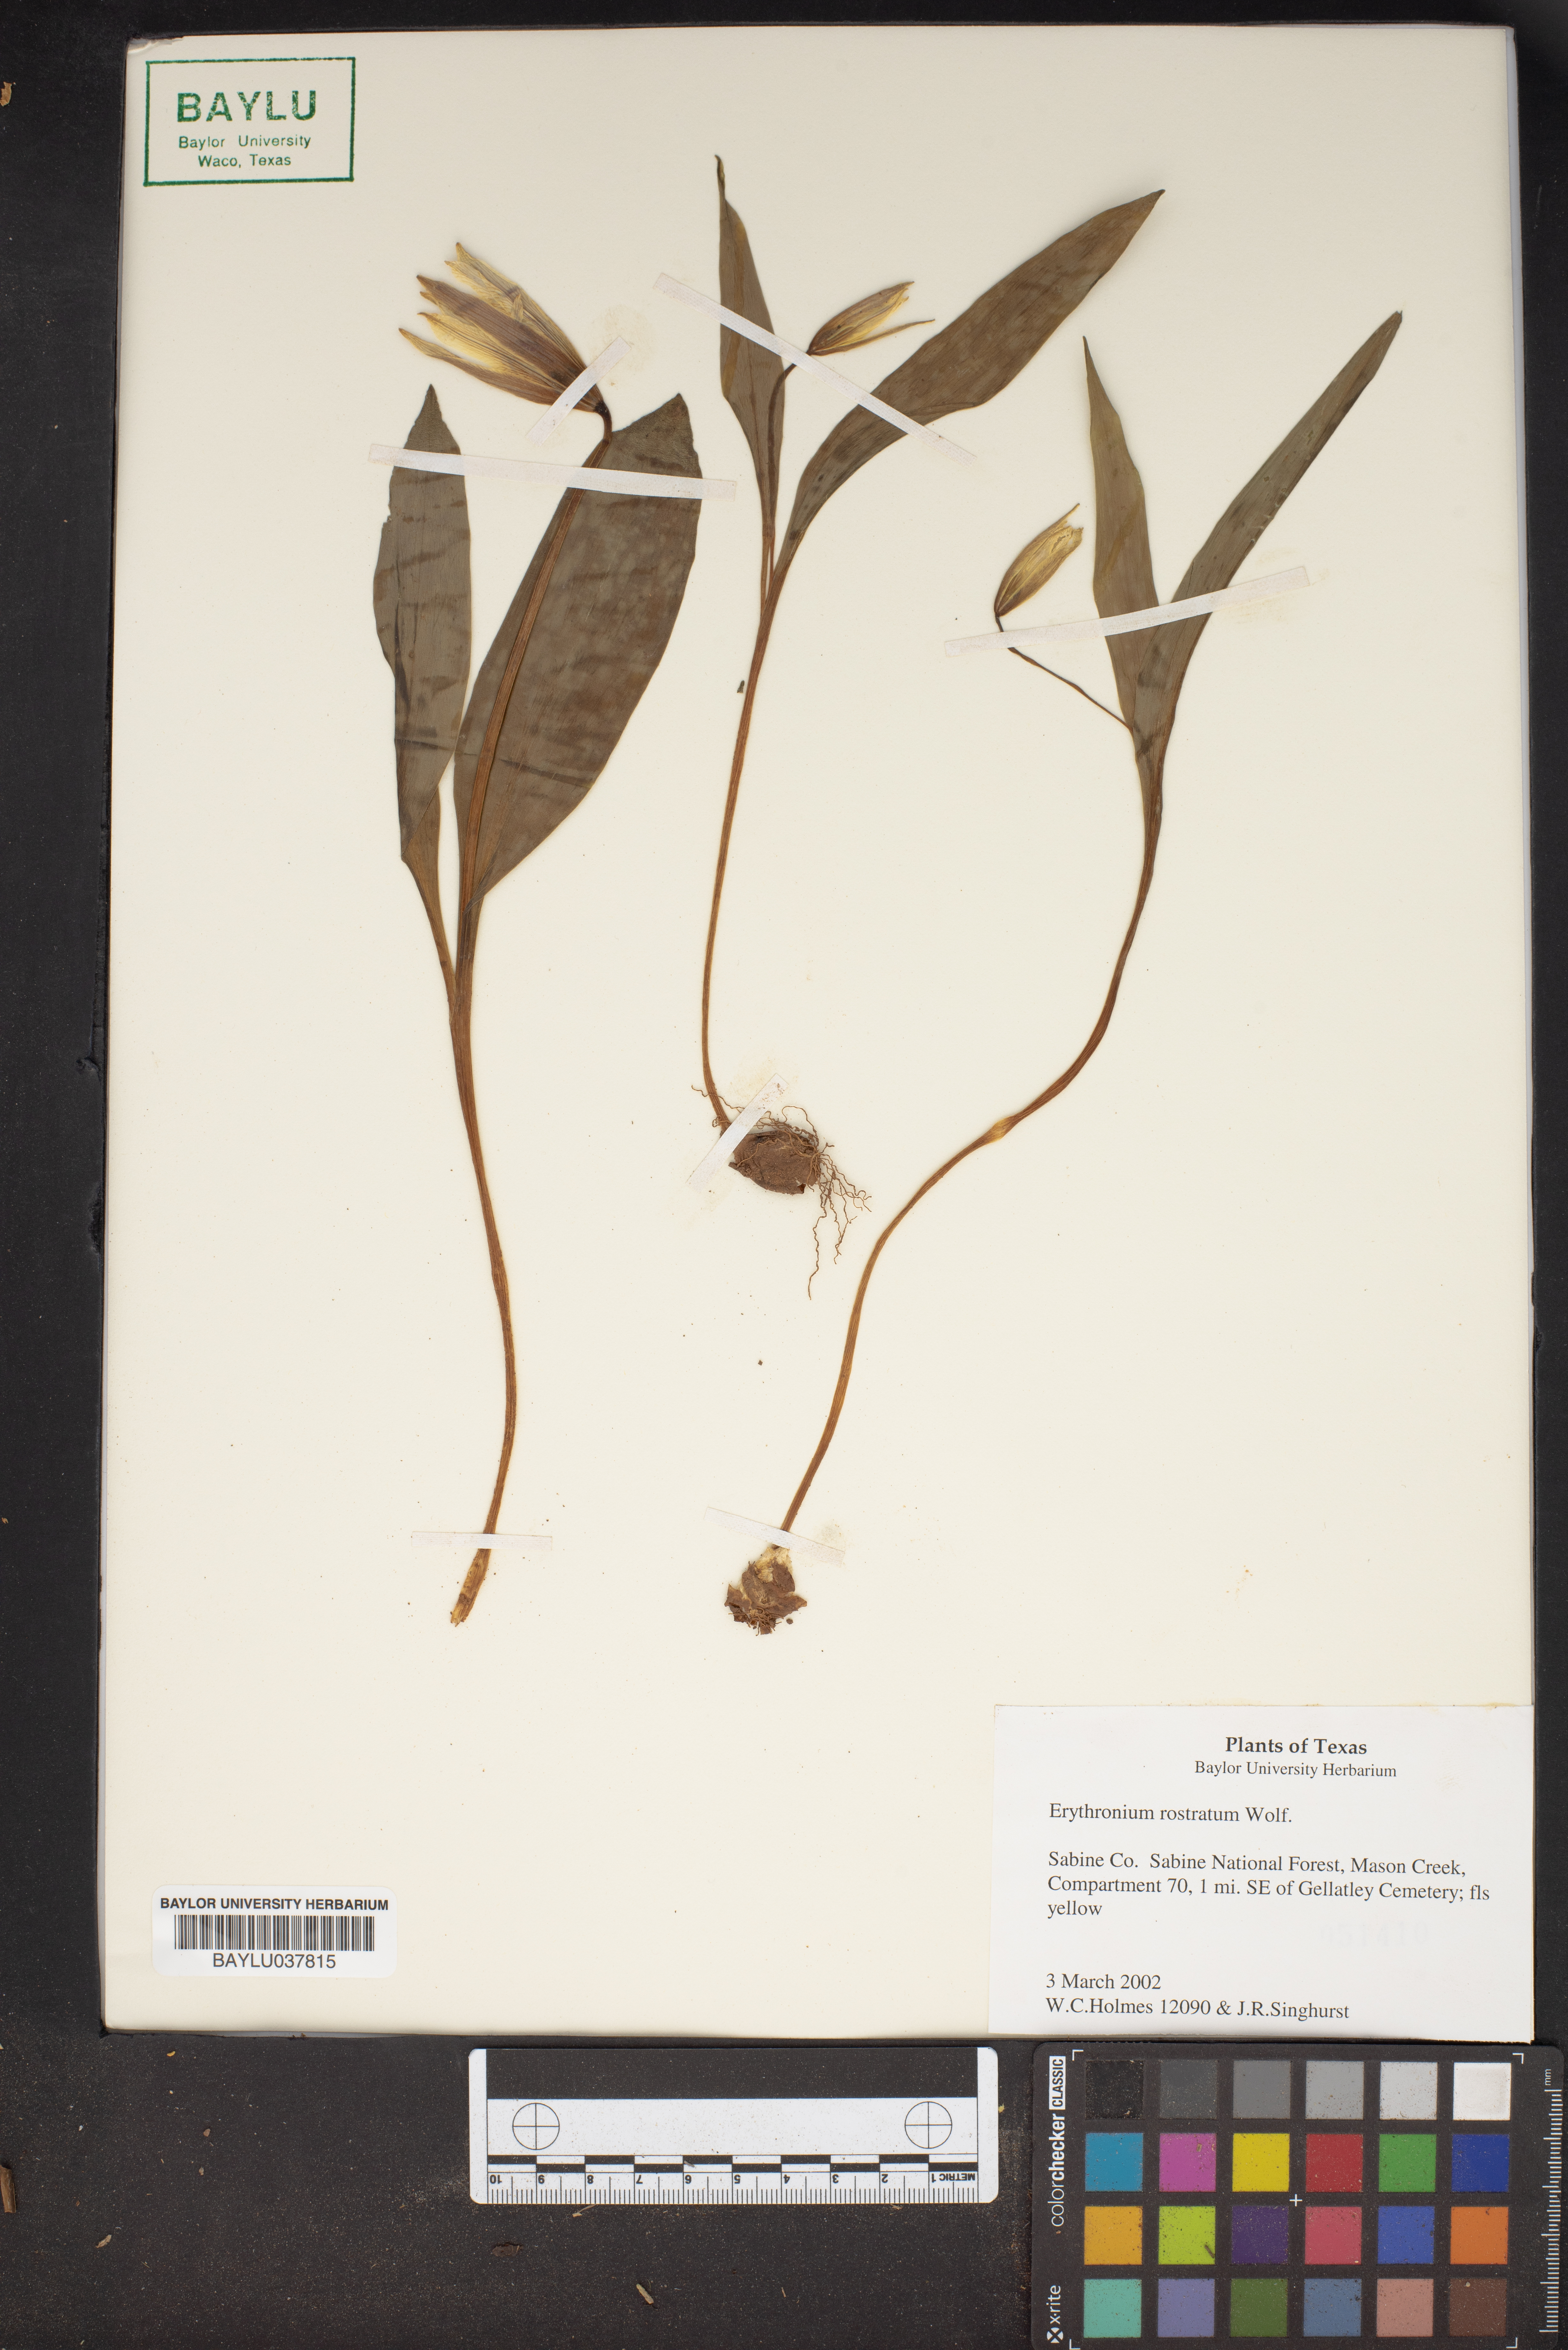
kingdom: Plantae
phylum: Tracheophyta
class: Liliopsida
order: Liliales
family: Liliaceae
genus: Erythronium
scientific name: Erythronium rostratum
